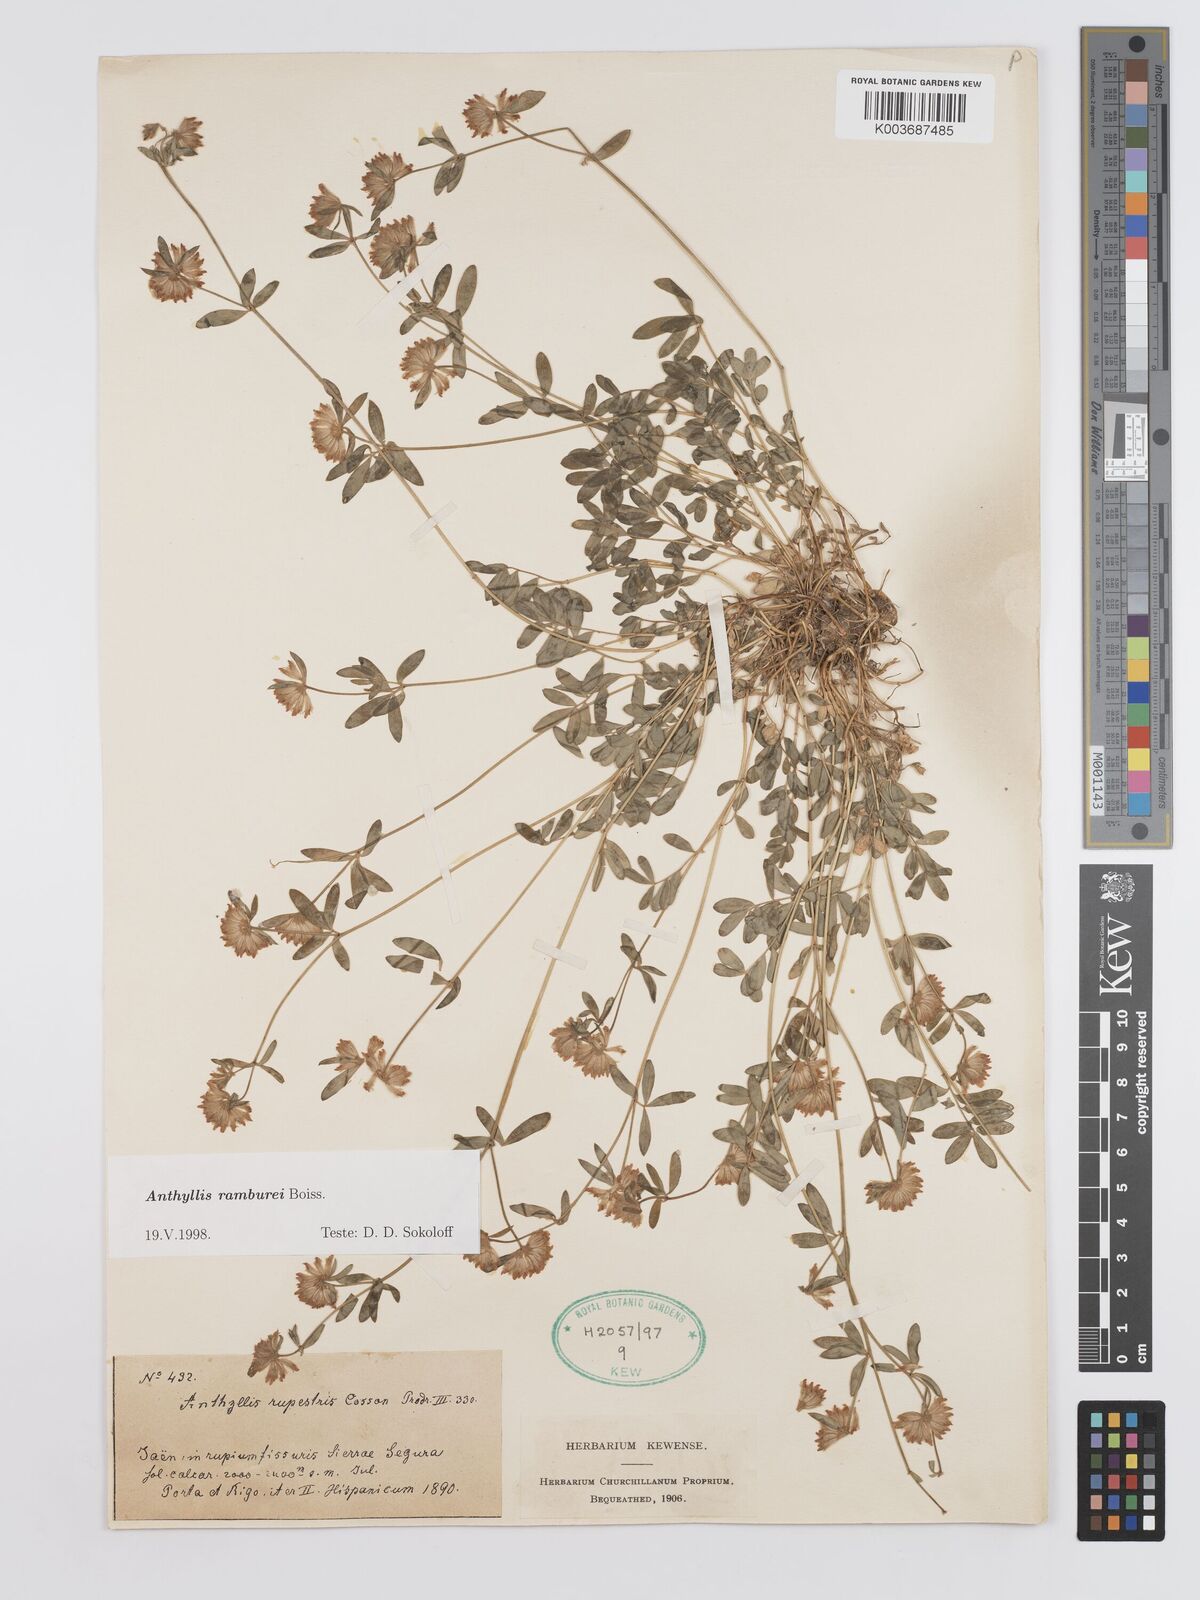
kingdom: Plantae
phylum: Tracheophyta
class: Magnoliopsida
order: Fabales
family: Fabaceae
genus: Anthyllis
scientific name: Anthyllis ramburei
